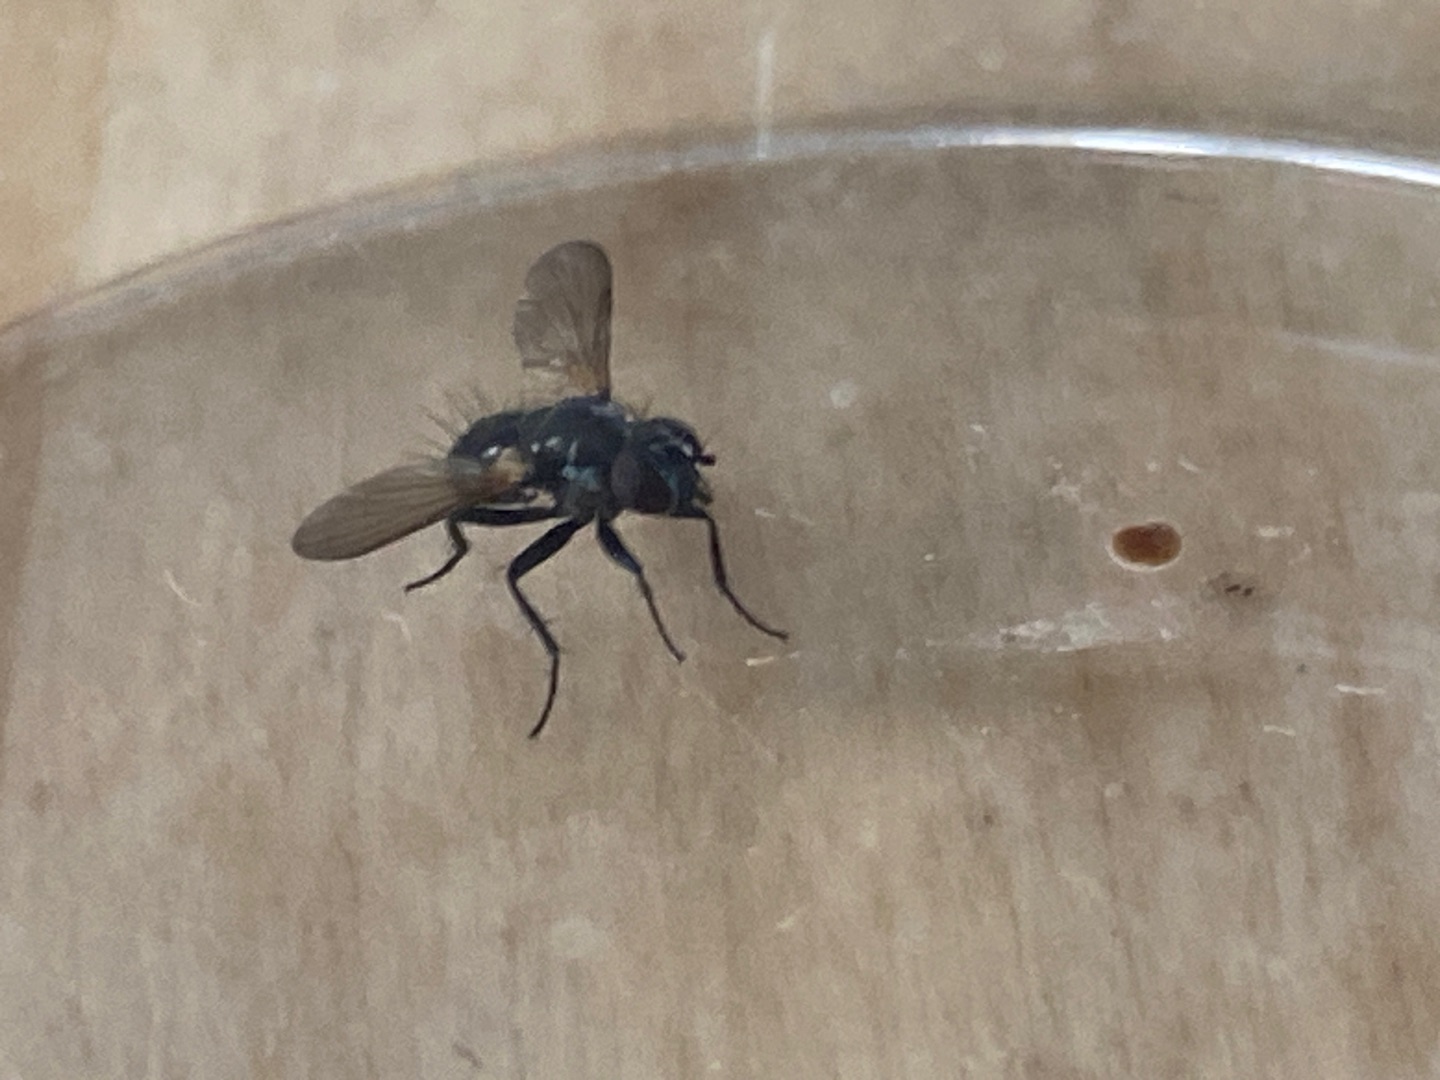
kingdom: Animalia
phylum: Arthropoda
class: Insecta
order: Diptera
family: Tachinidae
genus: Phania
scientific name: Phania funesta
